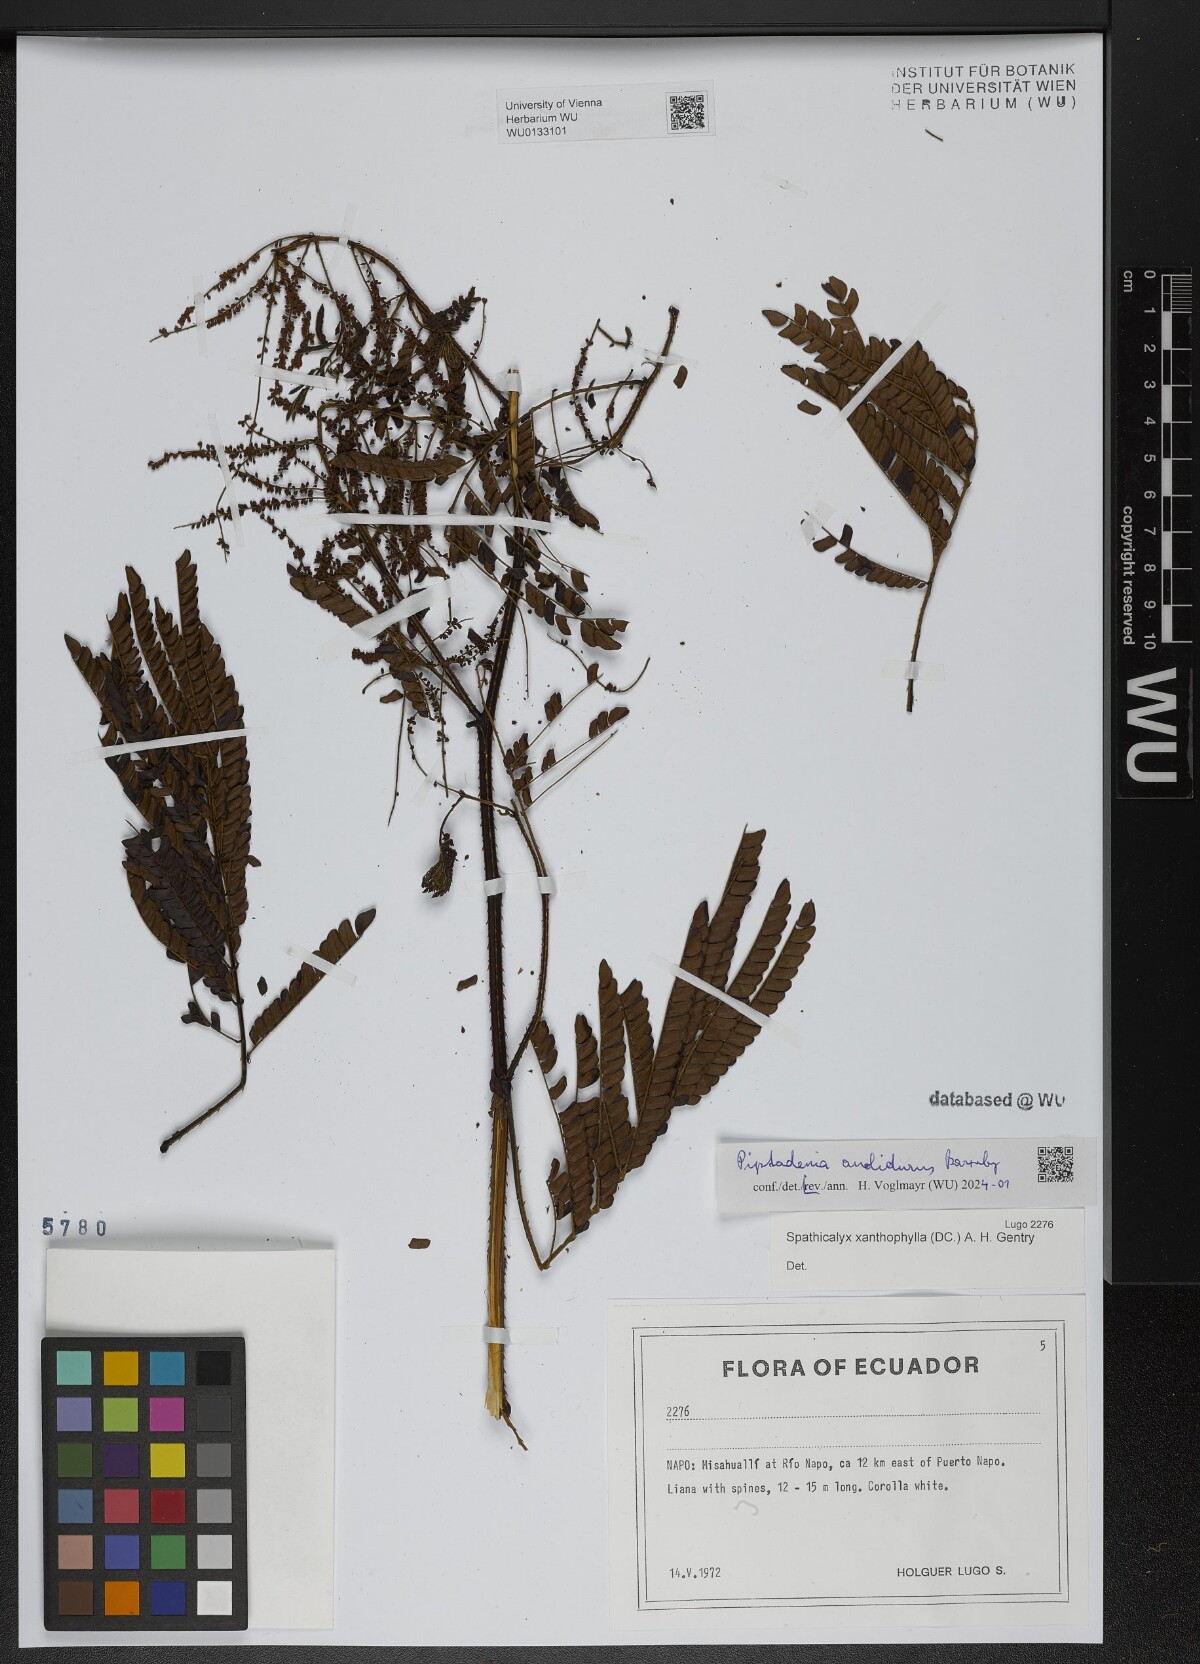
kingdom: Plantae
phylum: Tracheophyta
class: Magnoliopsida
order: Fabales
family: Fabaceae
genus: Piptadenia
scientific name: Piptadenia anolidurus
